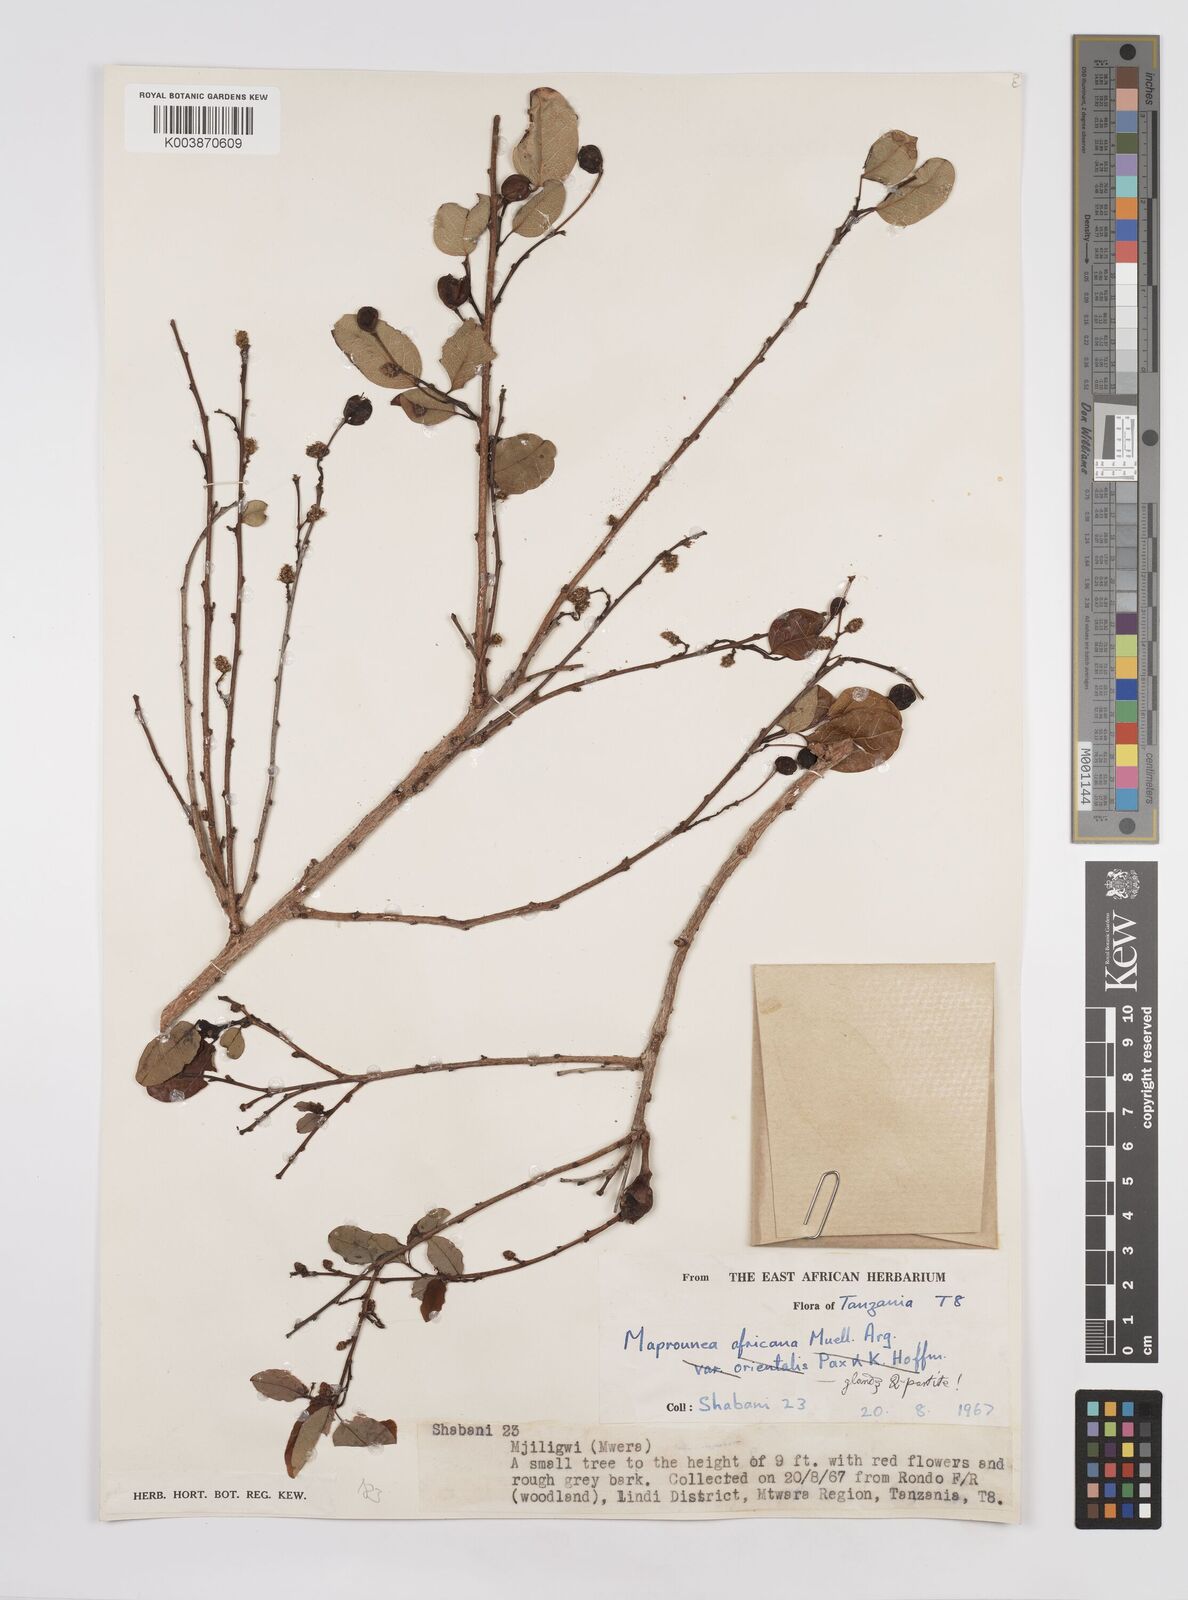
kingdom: Plantae
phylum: Tracheophyta
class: Magnoliopsida
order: Malpighiales
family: Euphorbiaceae
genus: Maprounea
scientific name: Maprounea africana
